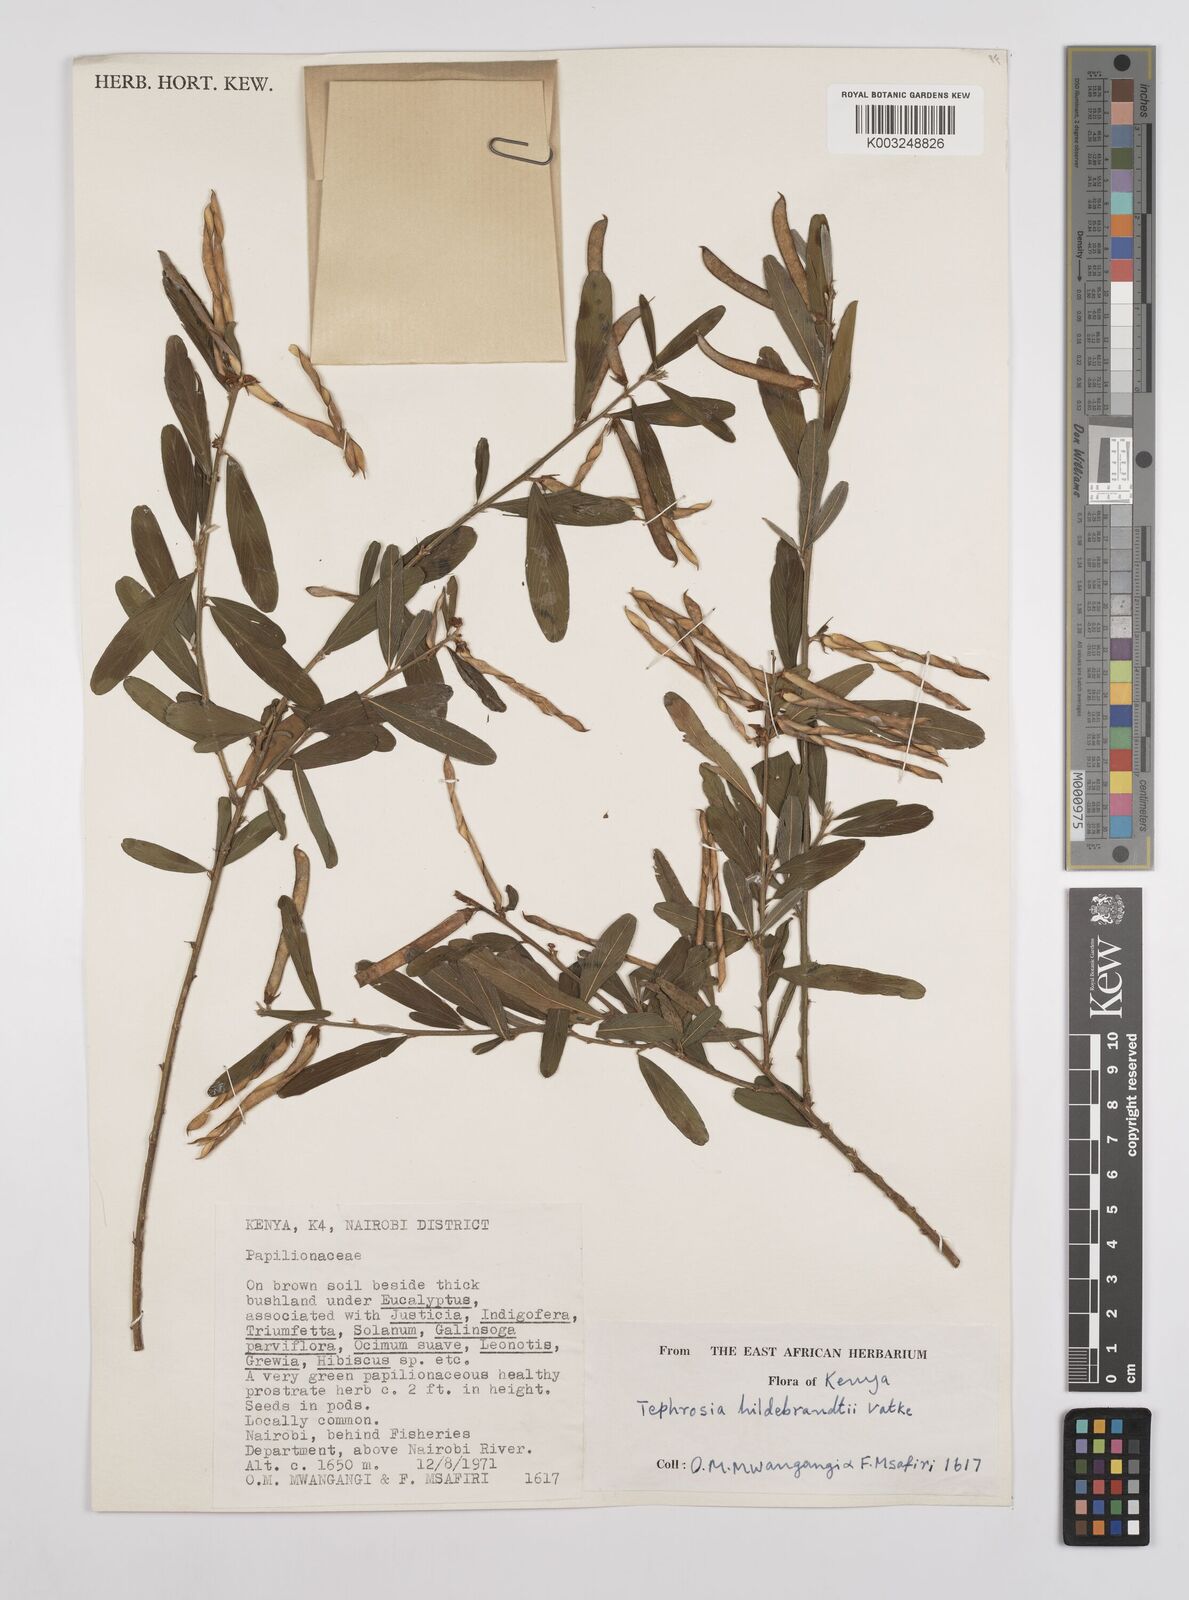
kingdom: Plantae
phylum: Tracheophyta
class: Magnoliopsida
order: Fabales
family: Fabaceae
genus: Tephrosia
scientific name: Tephrosia hildebrandtii
